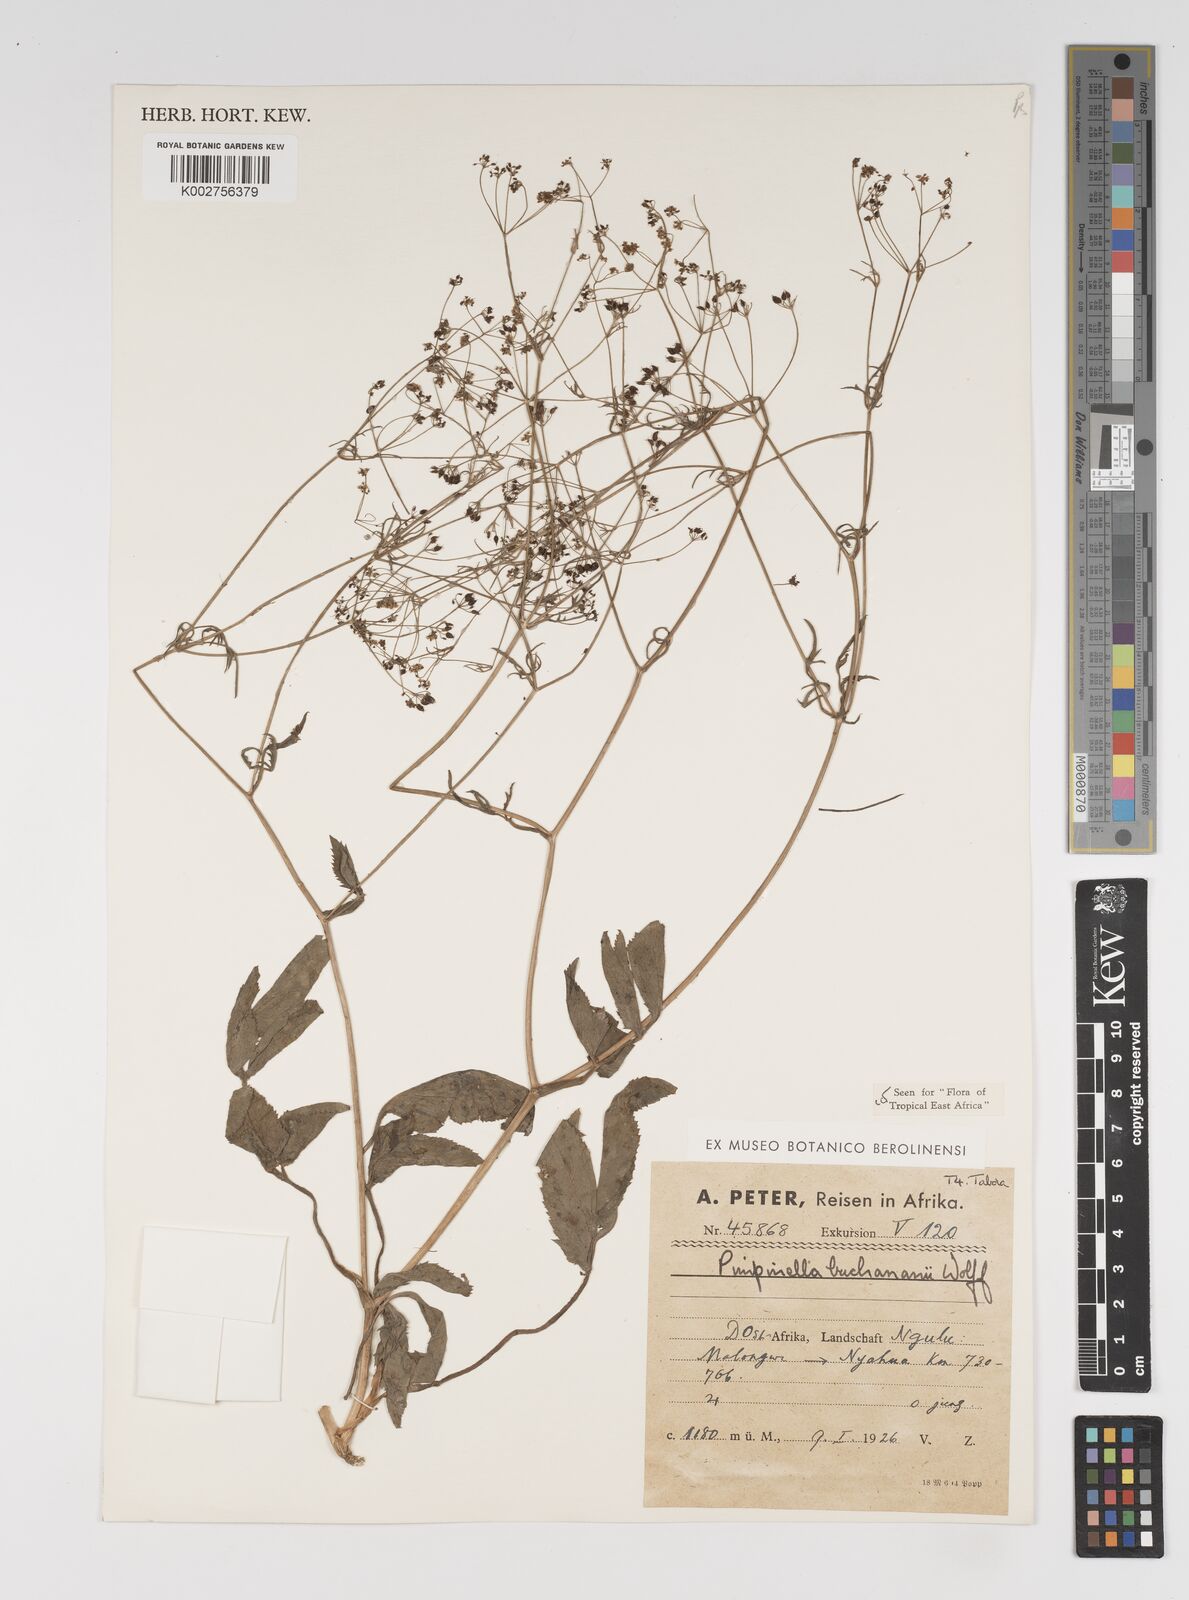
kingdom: Plantae
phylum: Tracheophyta
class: Magnoliopsida
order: Apiales
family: Apiaceae
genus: Pimpinella
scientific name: Pimpinella buchananii
